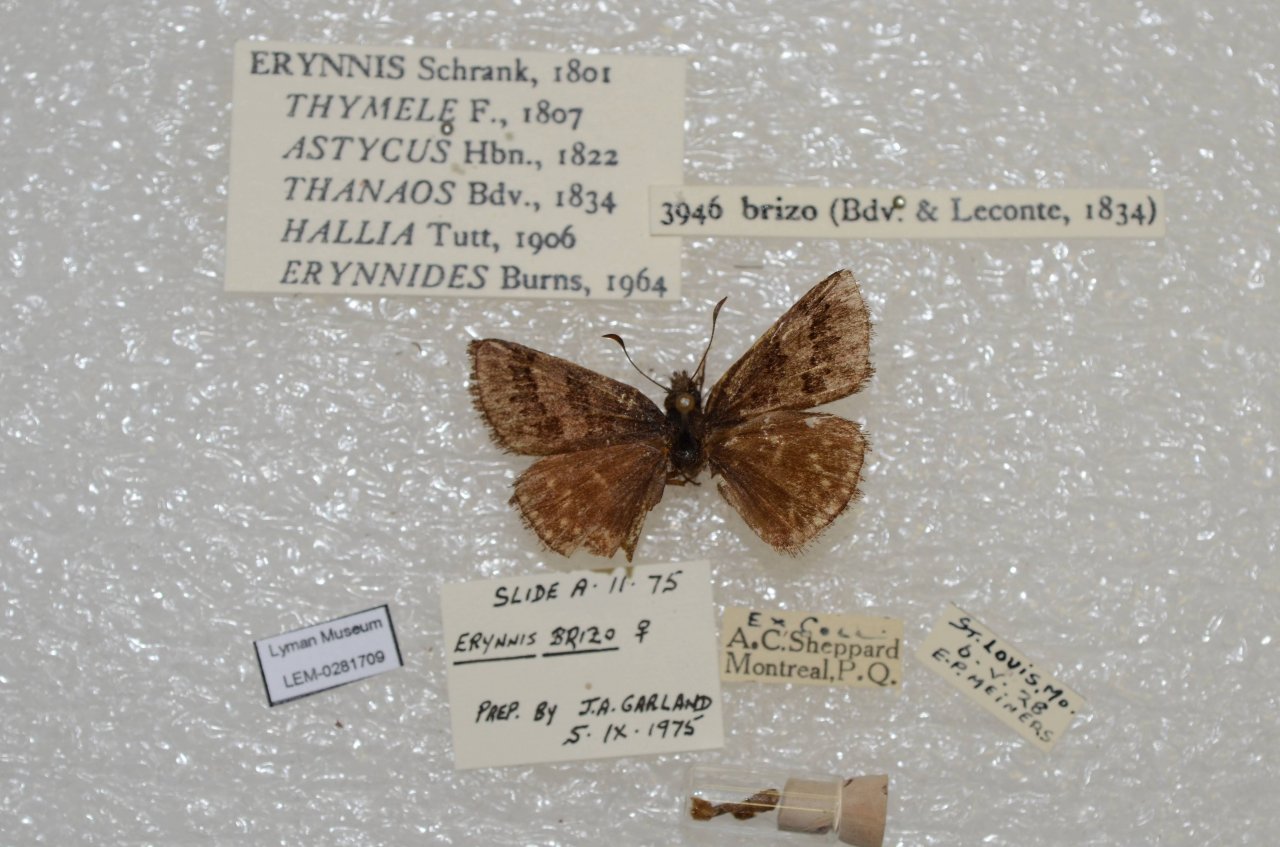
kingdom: Animalia
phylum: Arthropoda
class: Insecta
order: Lepidoptera
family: Hesperiidae
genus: Erynnis
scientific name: Erynnis brizo
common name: Sleepy Duskywing
